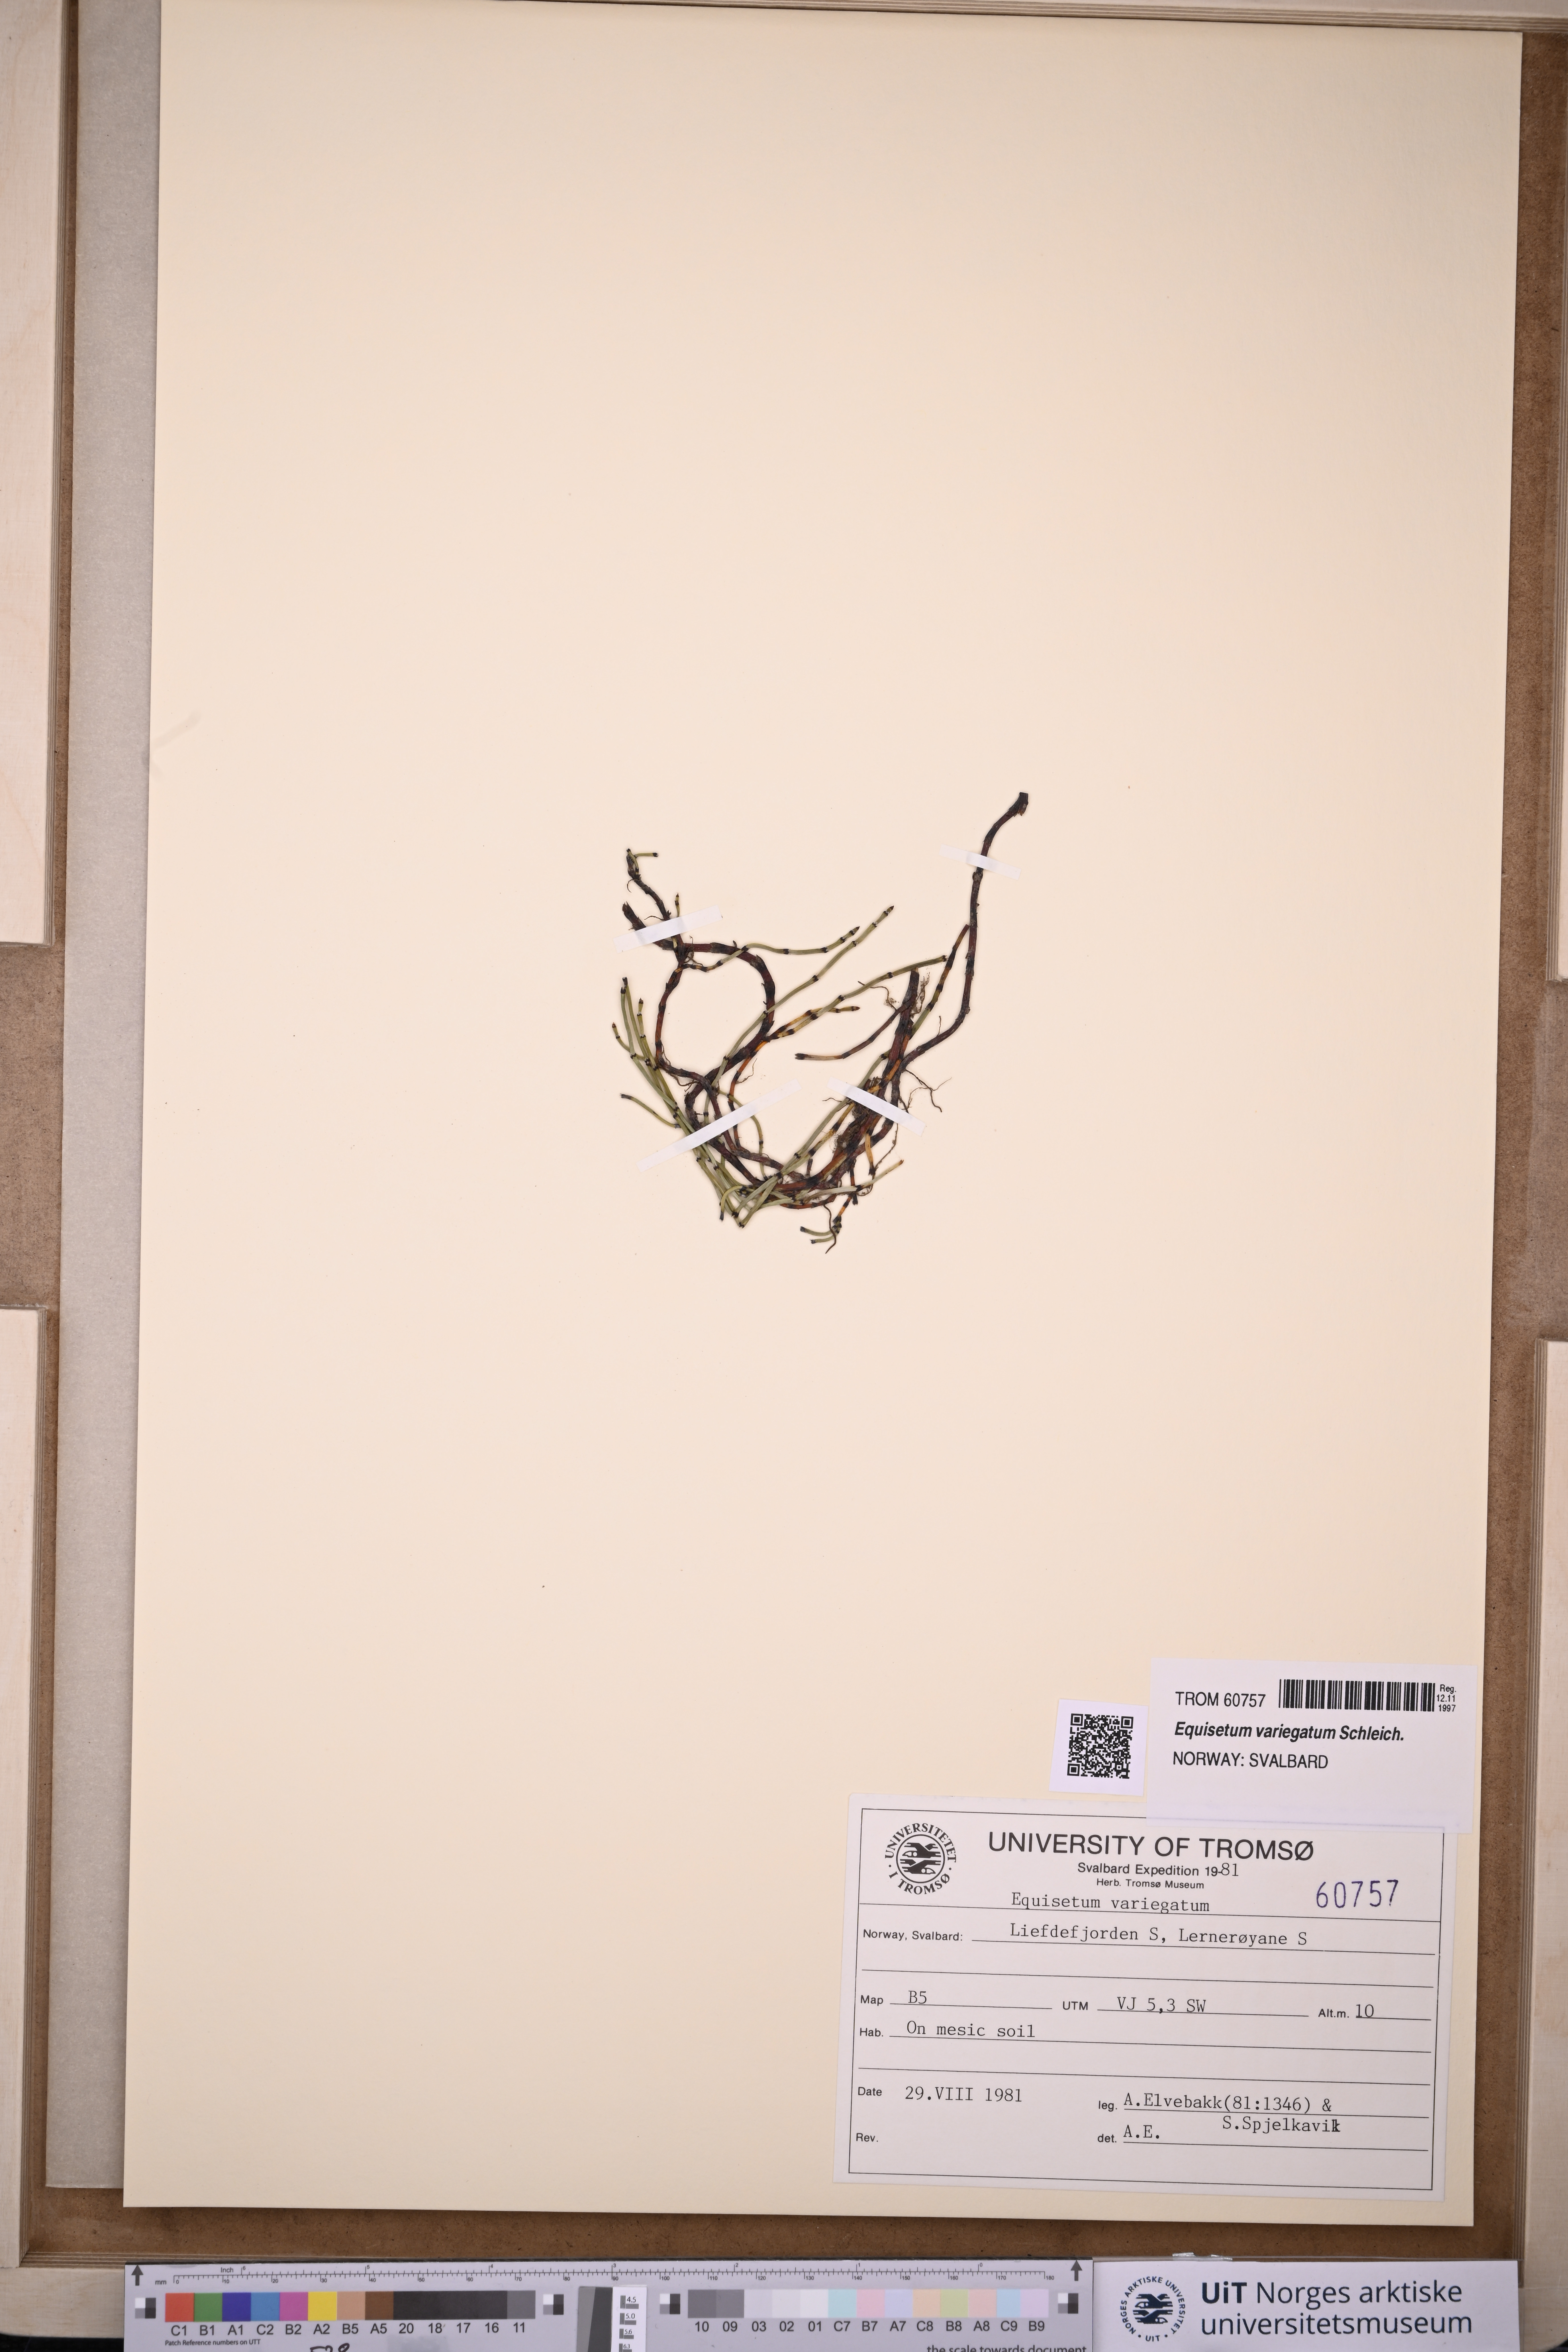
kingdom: Plantae
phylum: Tracheophyta
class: Polypodiopsida
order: Equisetales
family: Equisetaceae
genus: Equisetum
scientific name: Equisetum variegatum
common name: Variegated horsetail
